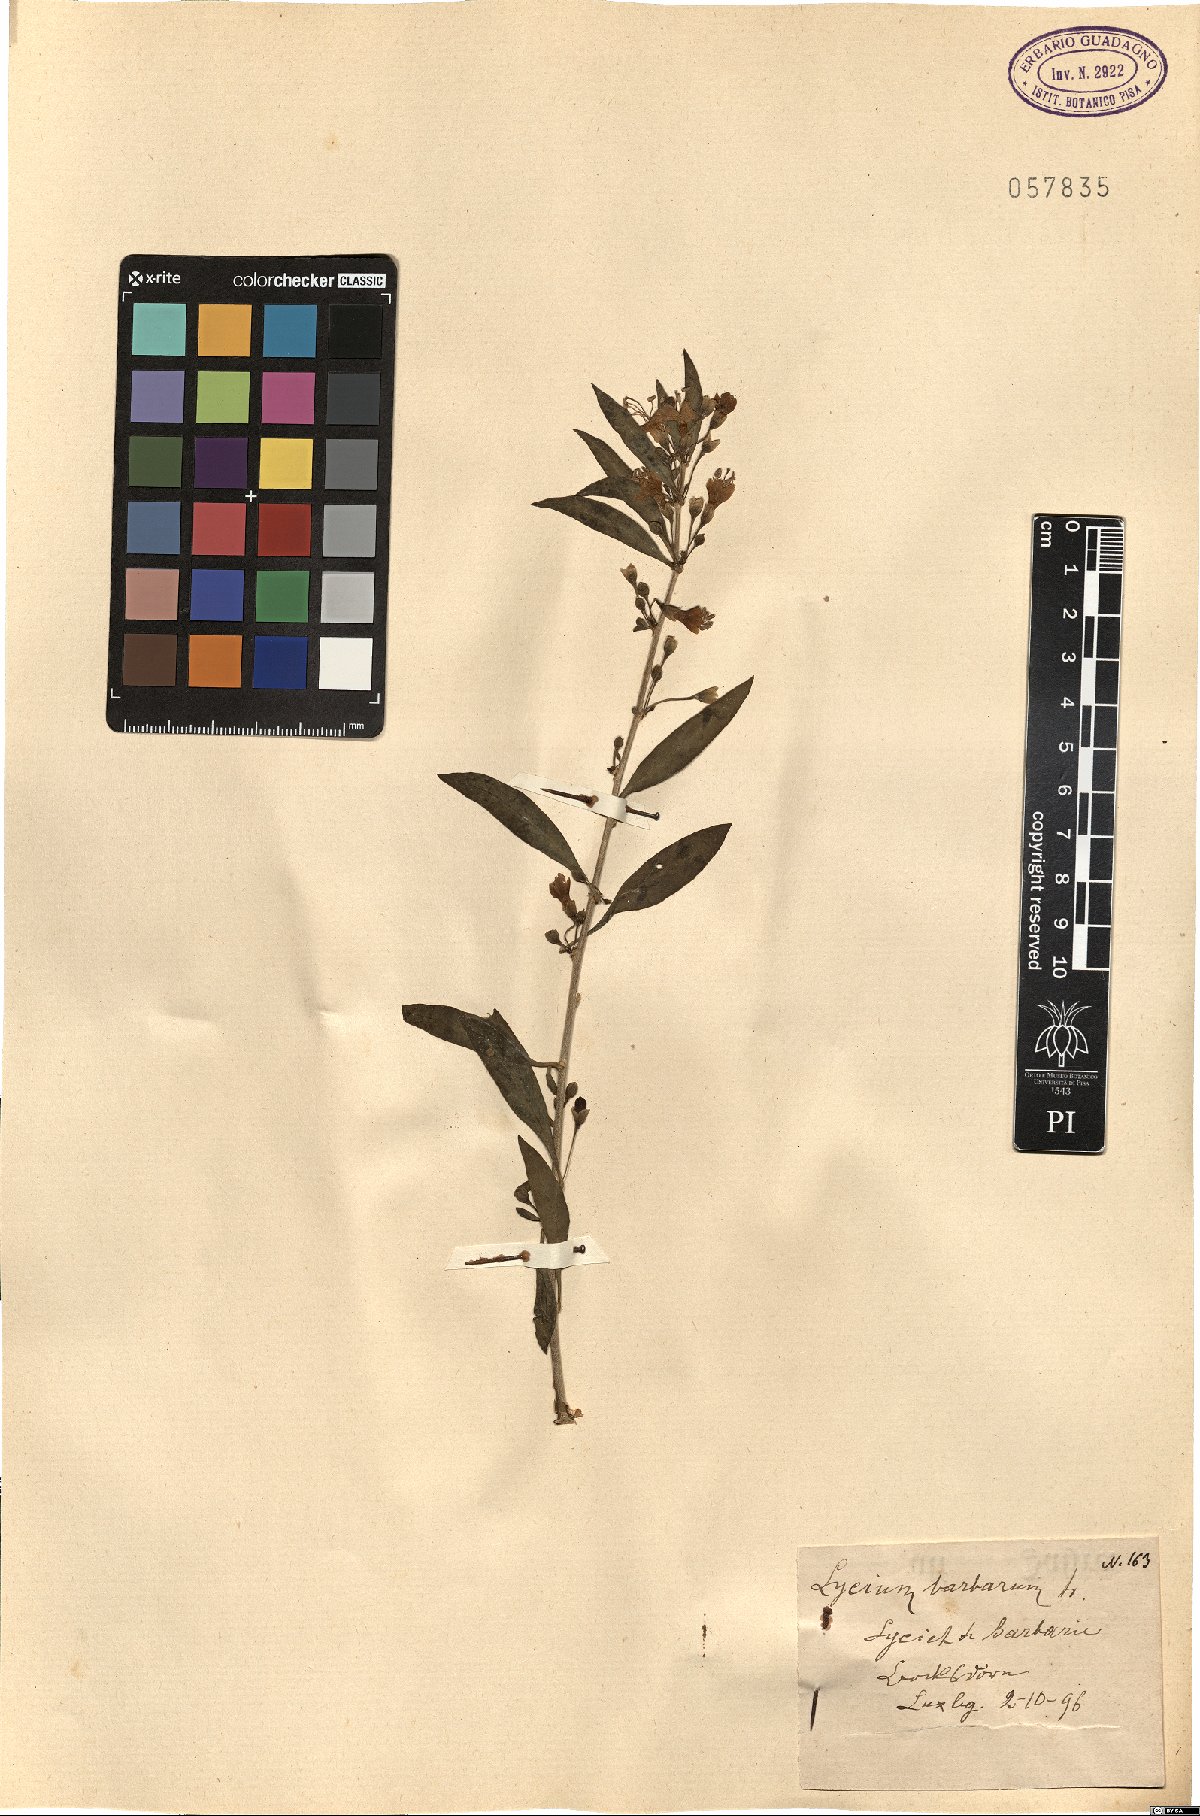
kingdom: Plantae
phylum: Tracheophyta
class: Magnoliopsida
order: Solanales
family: Solanaceae
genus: Lycium
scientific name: Lycium barbarum
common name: Duke of argyll's teaplant
